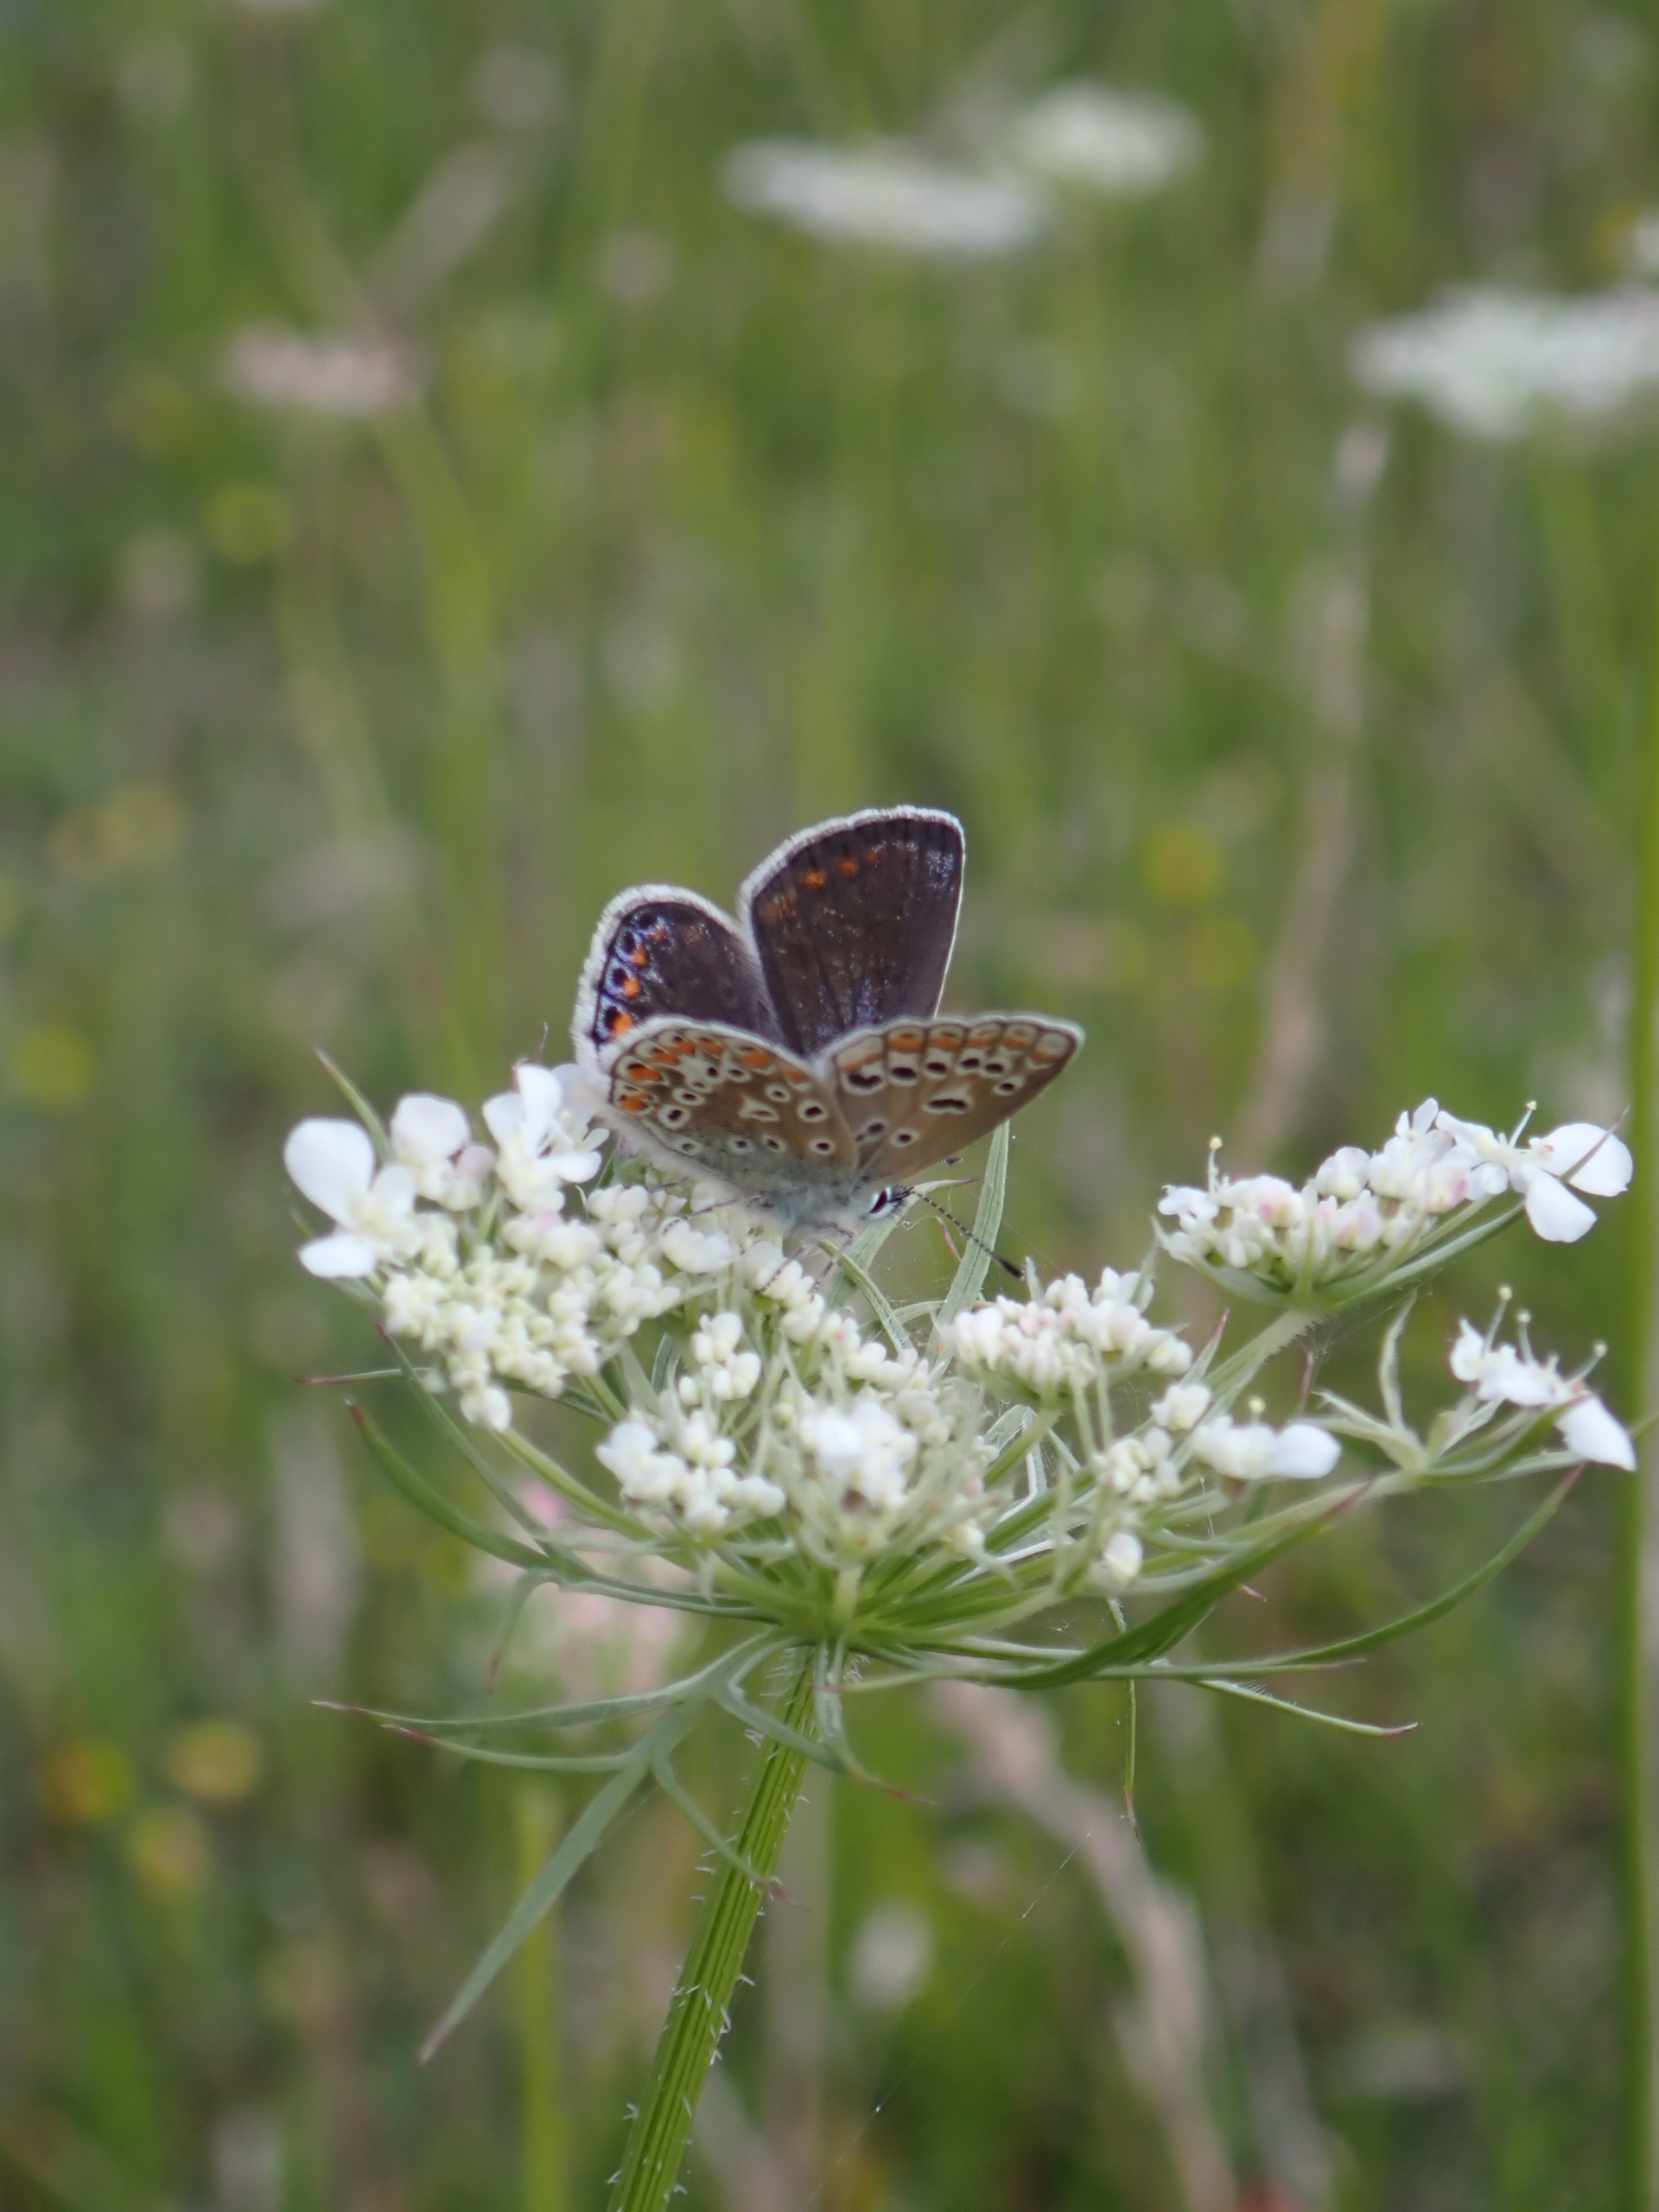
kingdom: Animalia
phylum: Arthropoda
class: Insecta
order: Lepidoptera
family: Lycaenidae
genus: Polyommatus
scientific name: Polyommatus icarus
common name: Almindelig blåfugl
